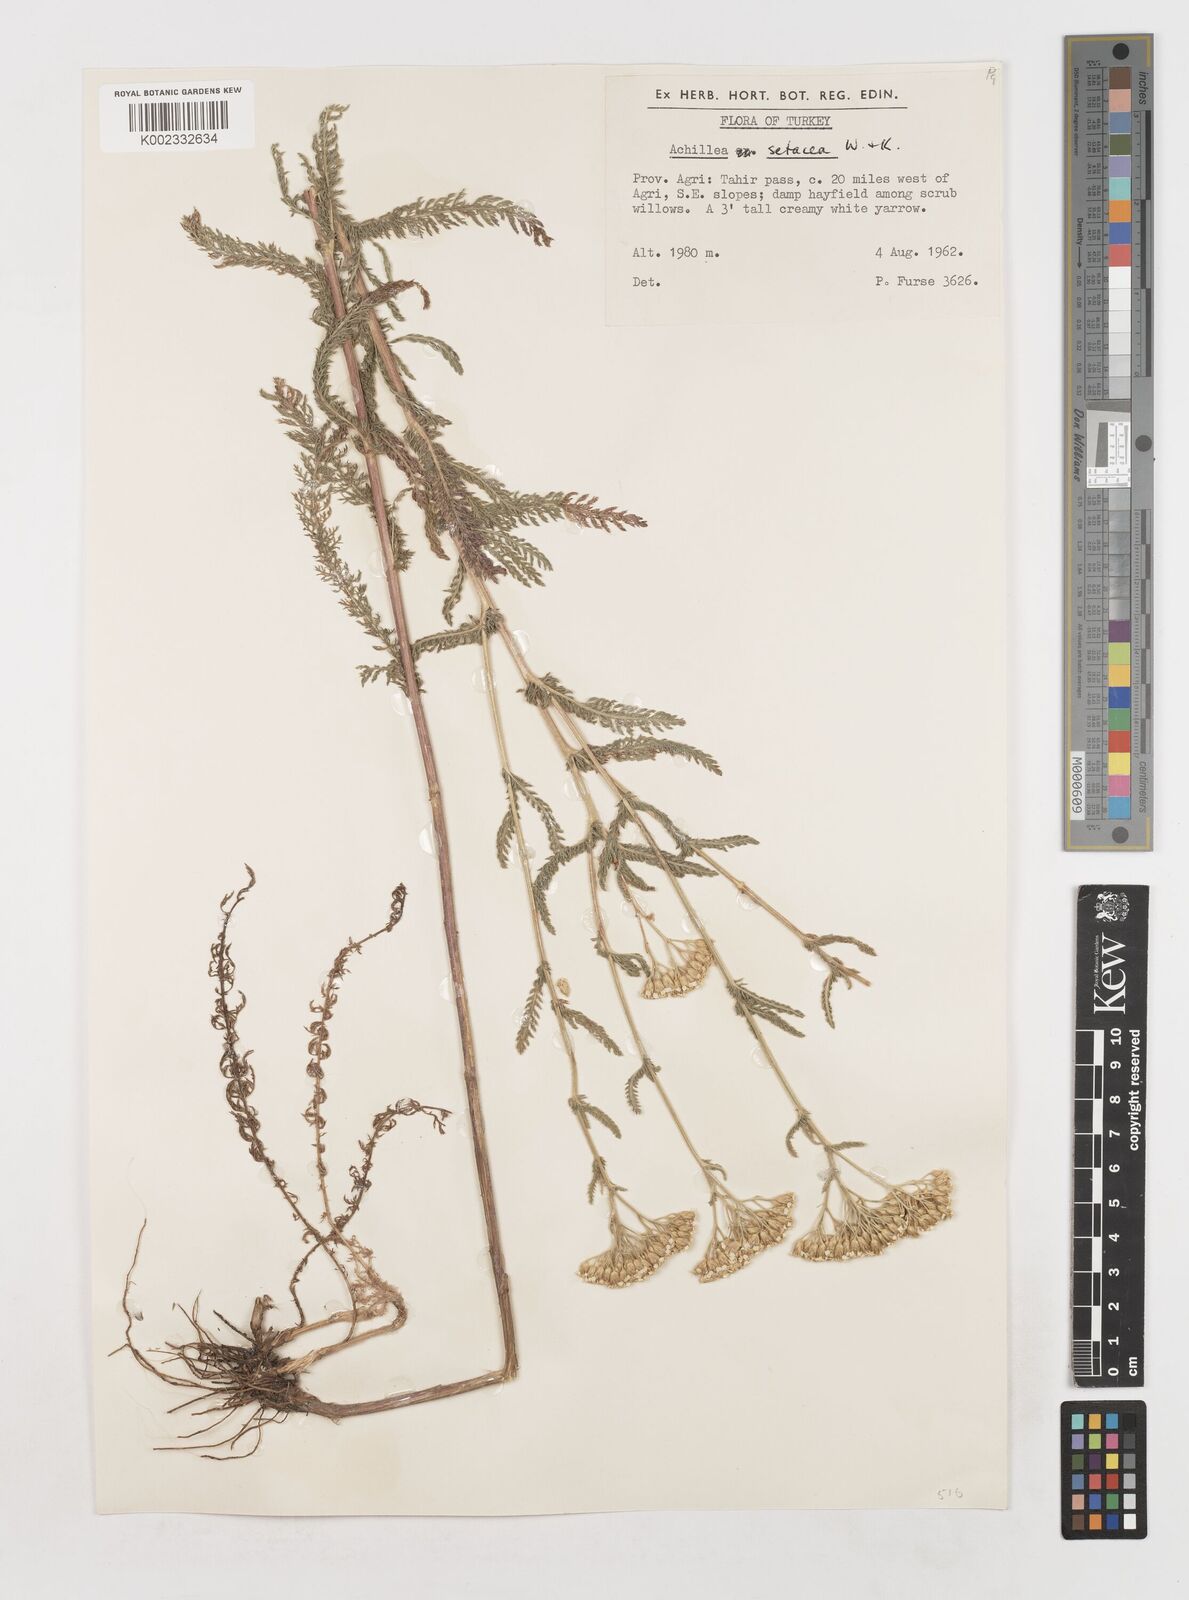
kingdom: Plantae
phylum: Tracheophyta
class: Magnoliopsida
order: Asterales
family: Asteraceae
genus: Achillea
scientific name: Achillea setacea
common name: Bristly yarrow
